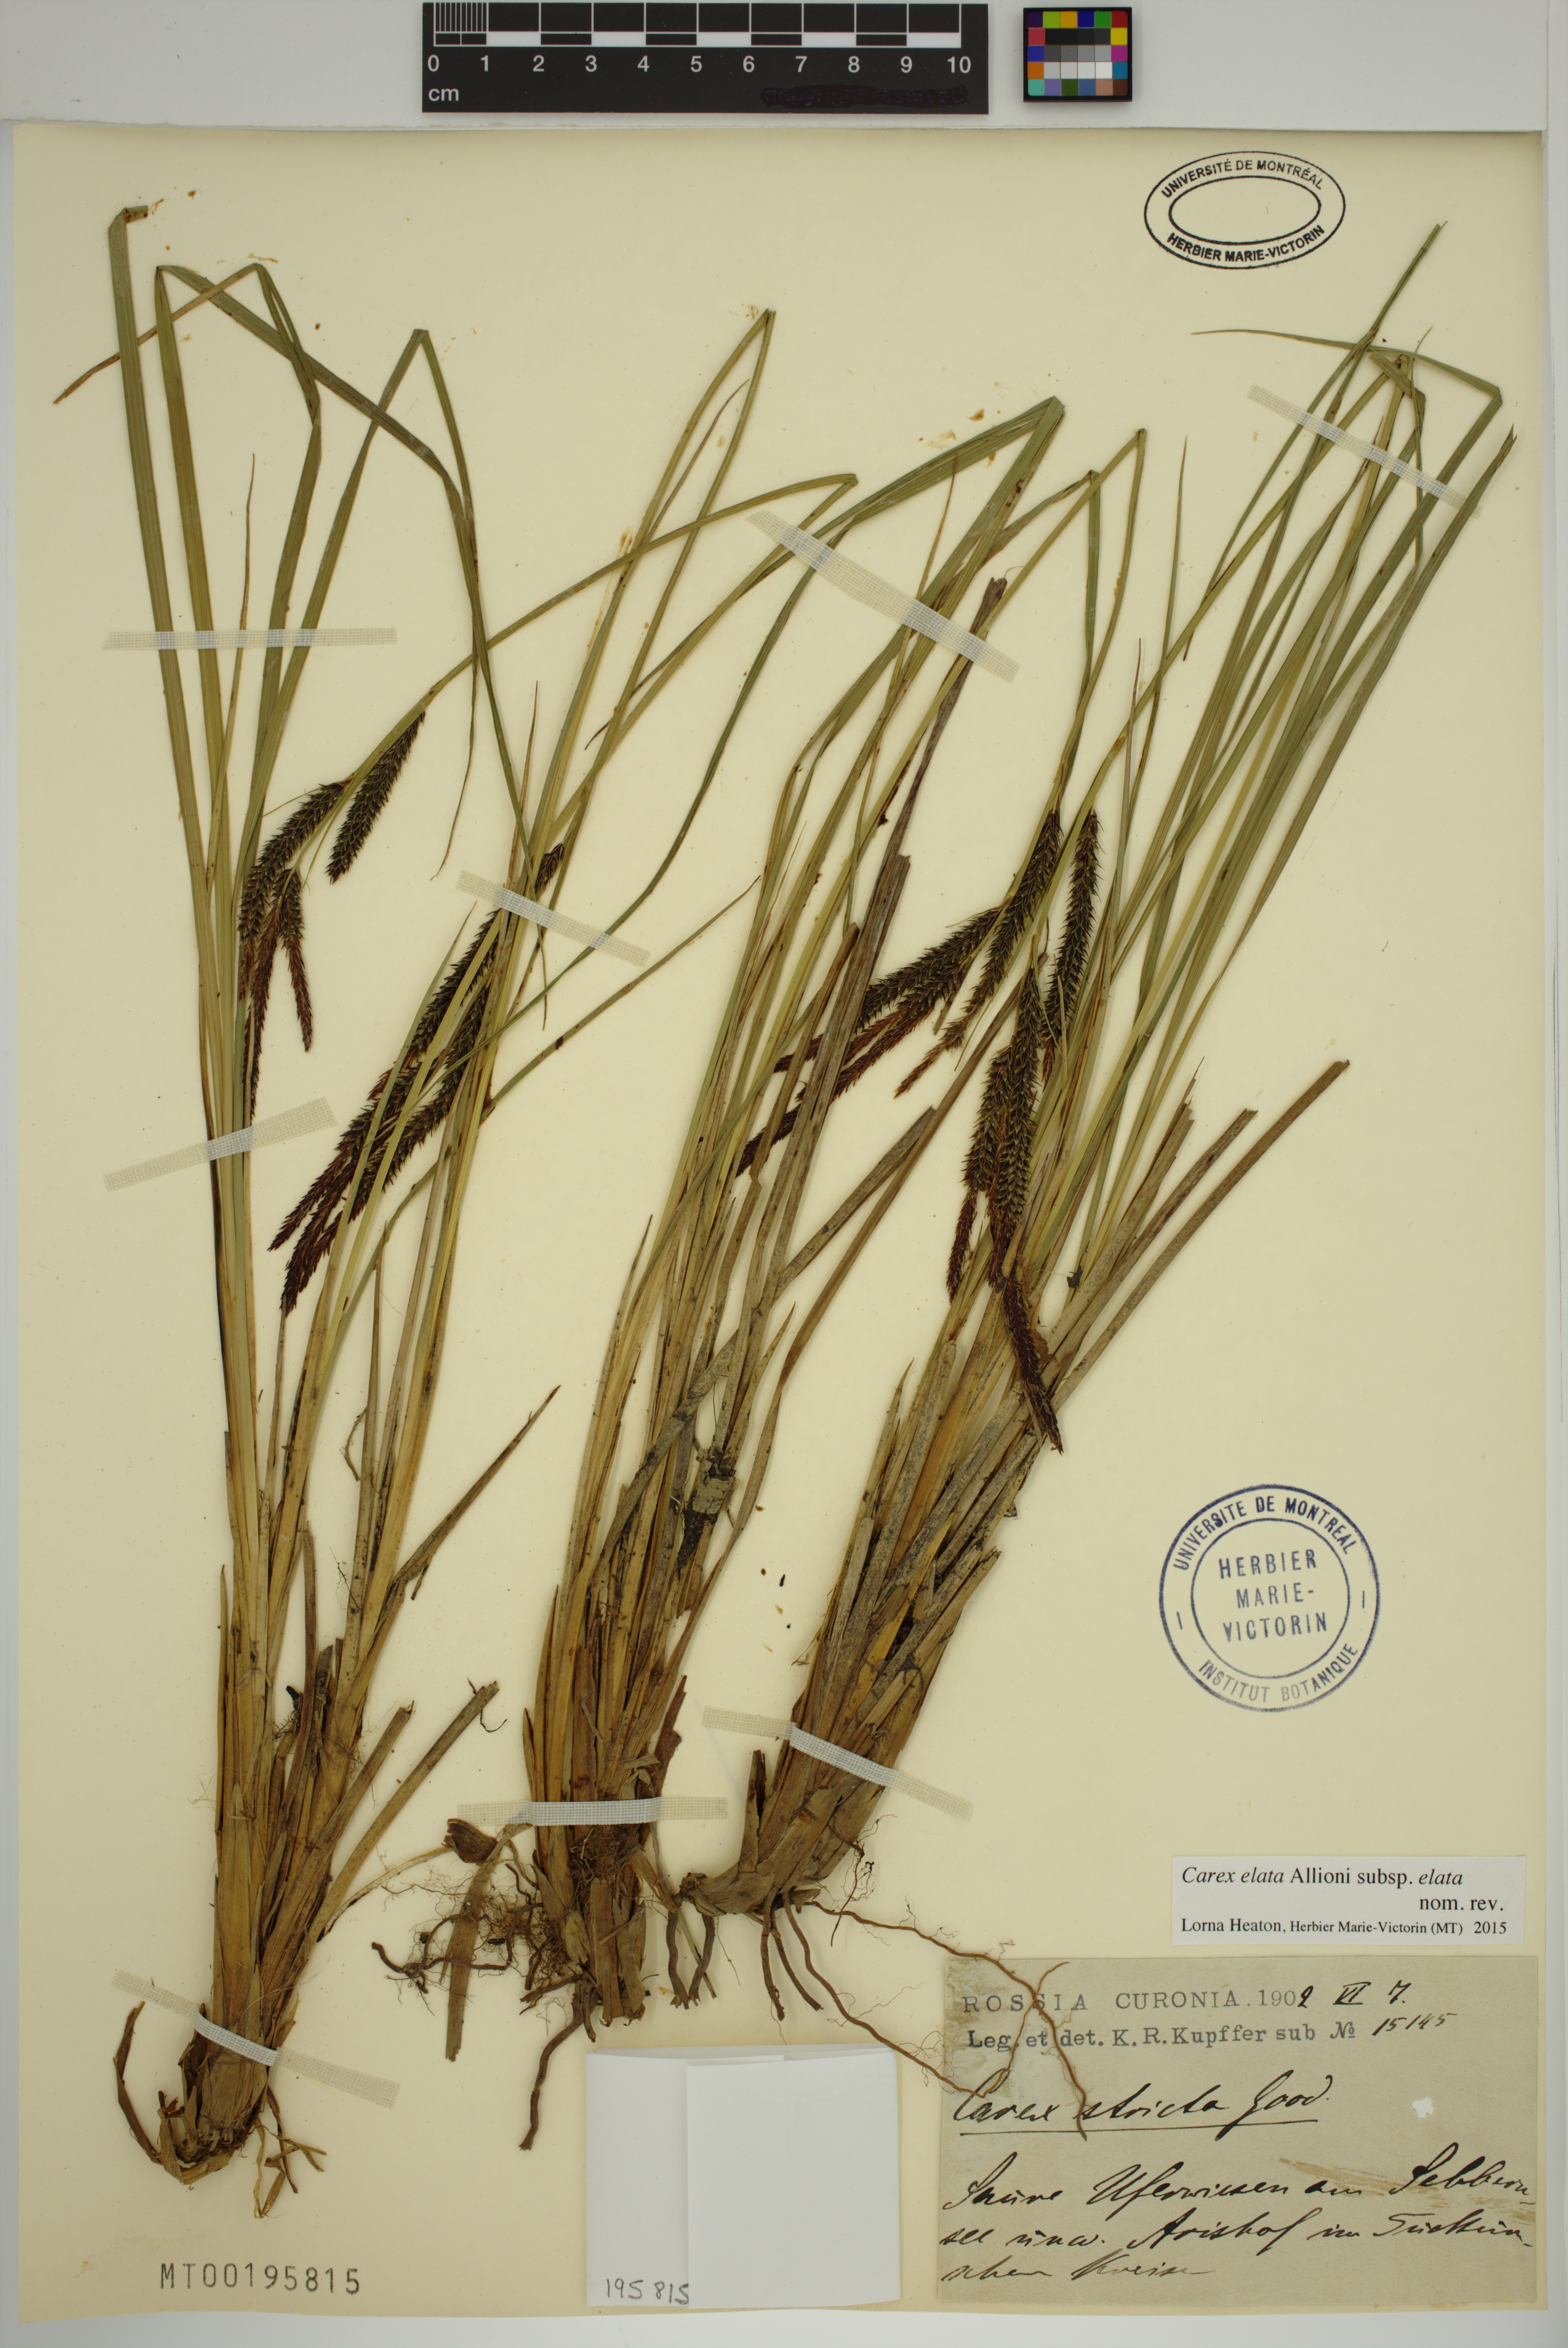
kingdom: Plantae
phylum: Tracheophyta
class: Liliopsida
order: Poales
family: Cyperaceae
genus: Carex
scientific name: Carex elata
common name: Tufted sedge
